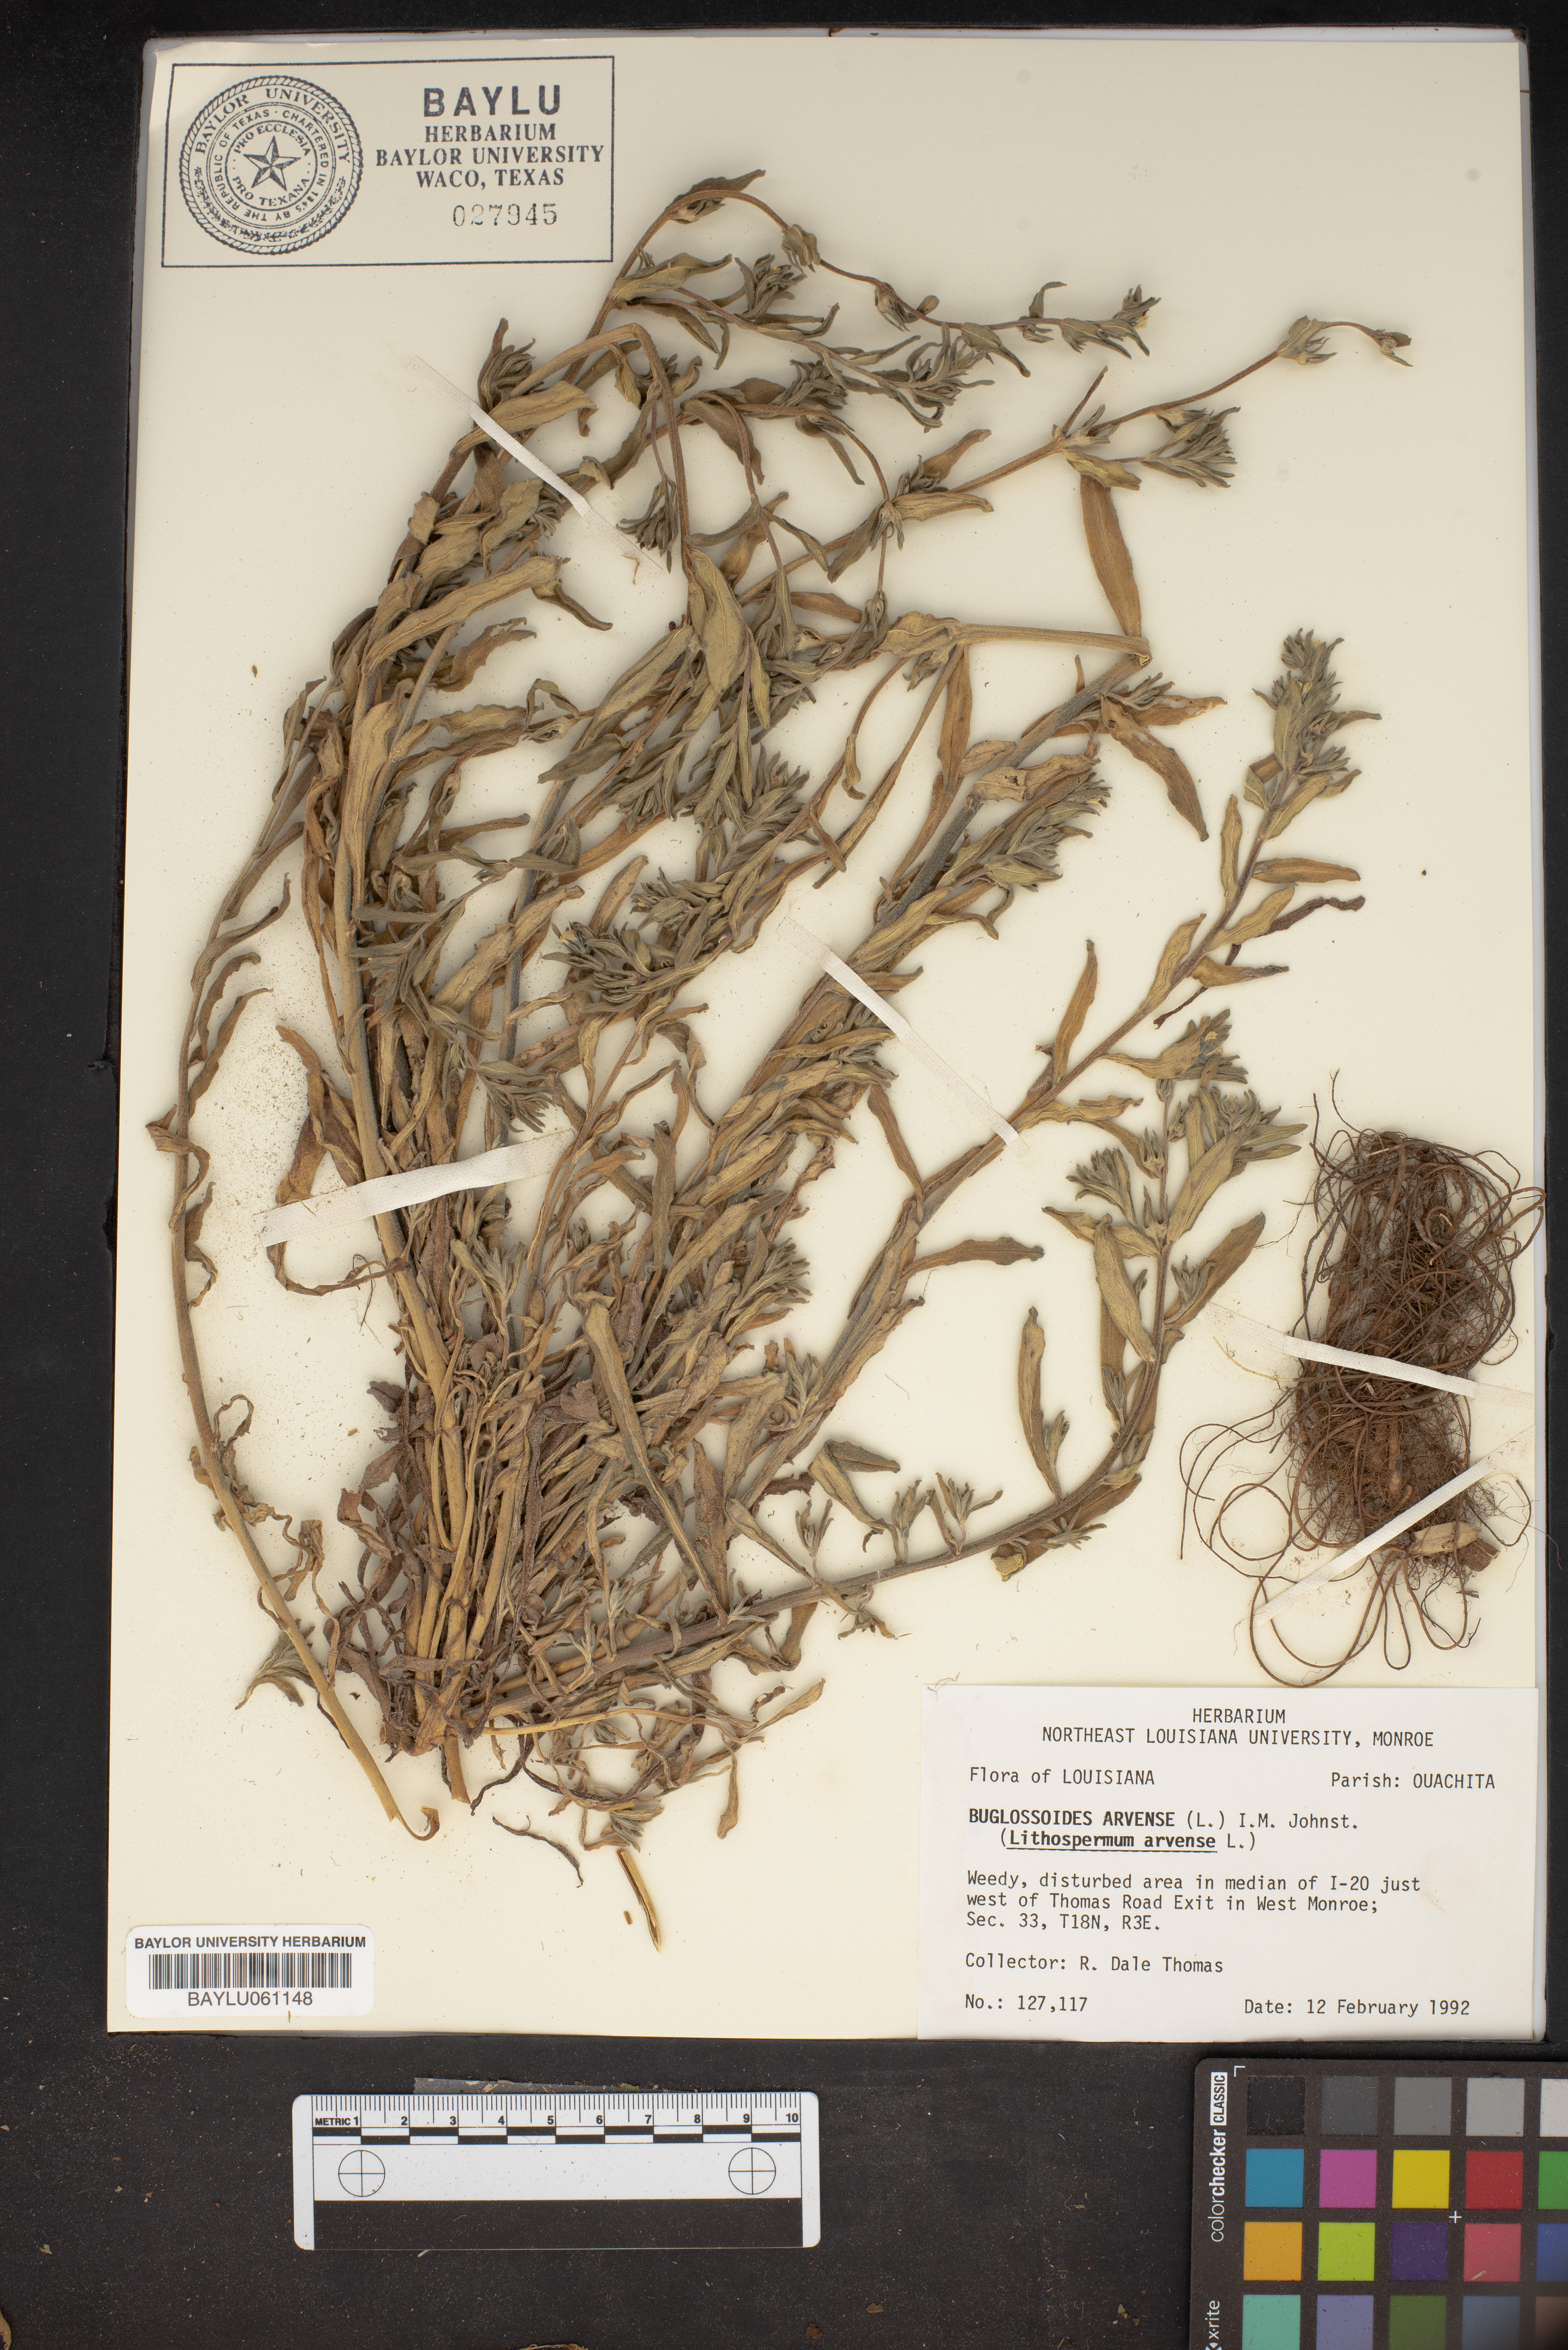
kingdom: Plantae
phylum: Tracheophyta
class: Magnoliopsida
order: Boraginales
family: Boraginaceae
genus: Buglossoides
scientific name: Buglossoides arvensis
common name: Corn gromwell
